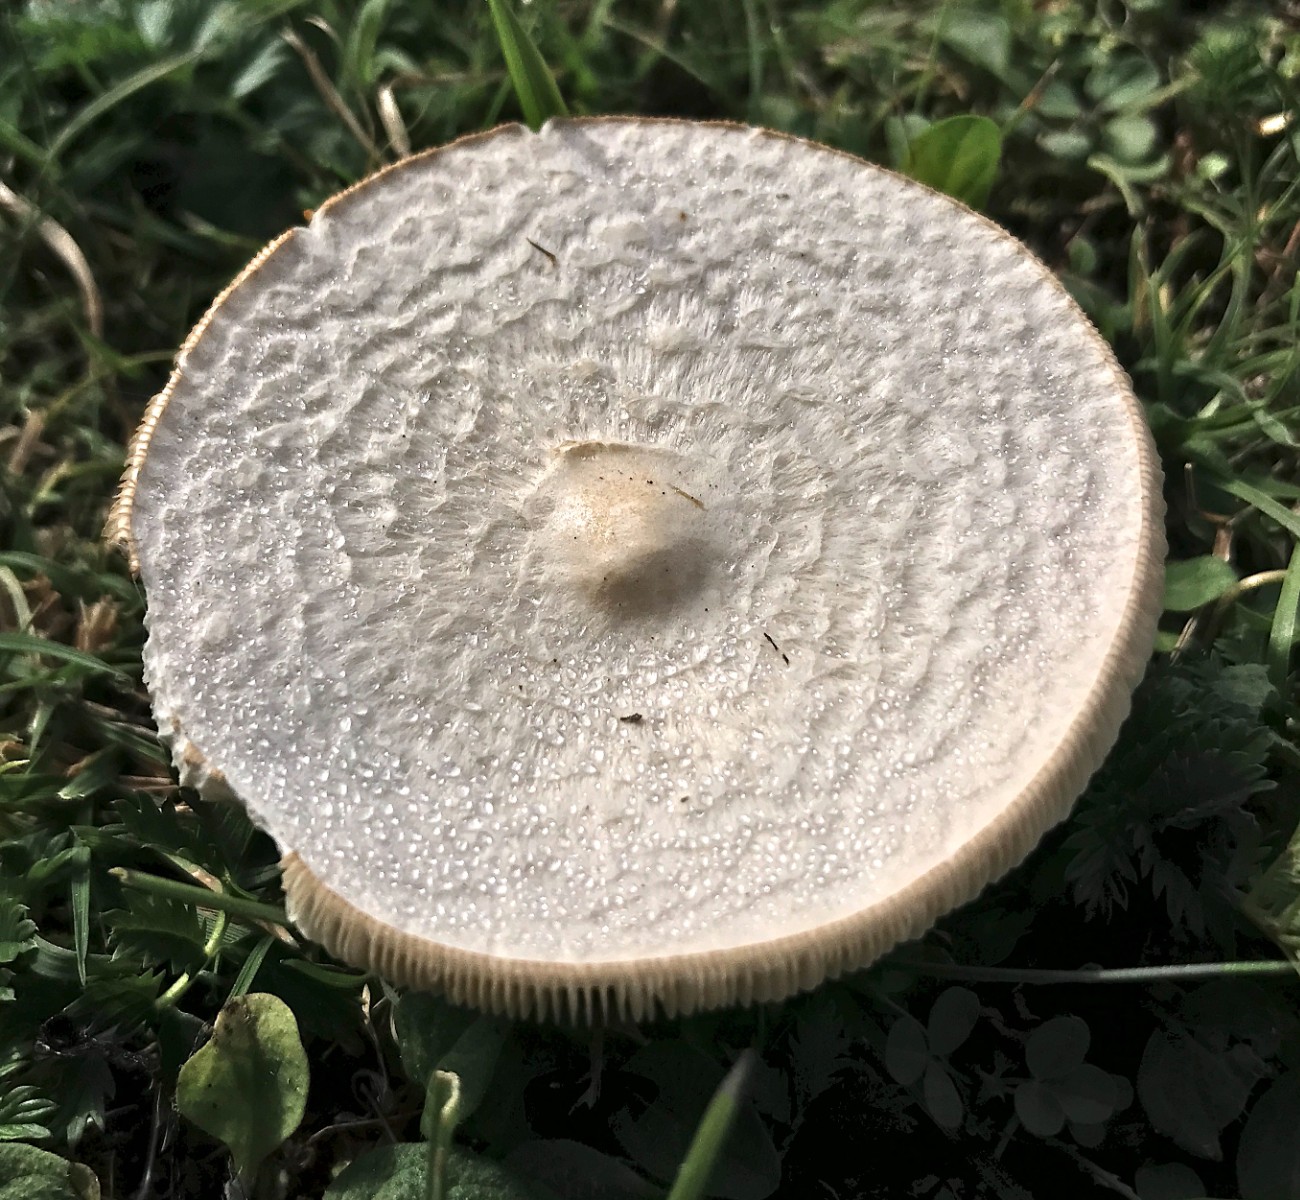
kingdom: Fungi
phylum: Basidiomycota
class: Agaricomycetes
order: Agaricales
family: Tricholomataceae
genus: Melanoleuca
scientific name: Melanoleuca verrucipes
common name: rufodet munkehat
